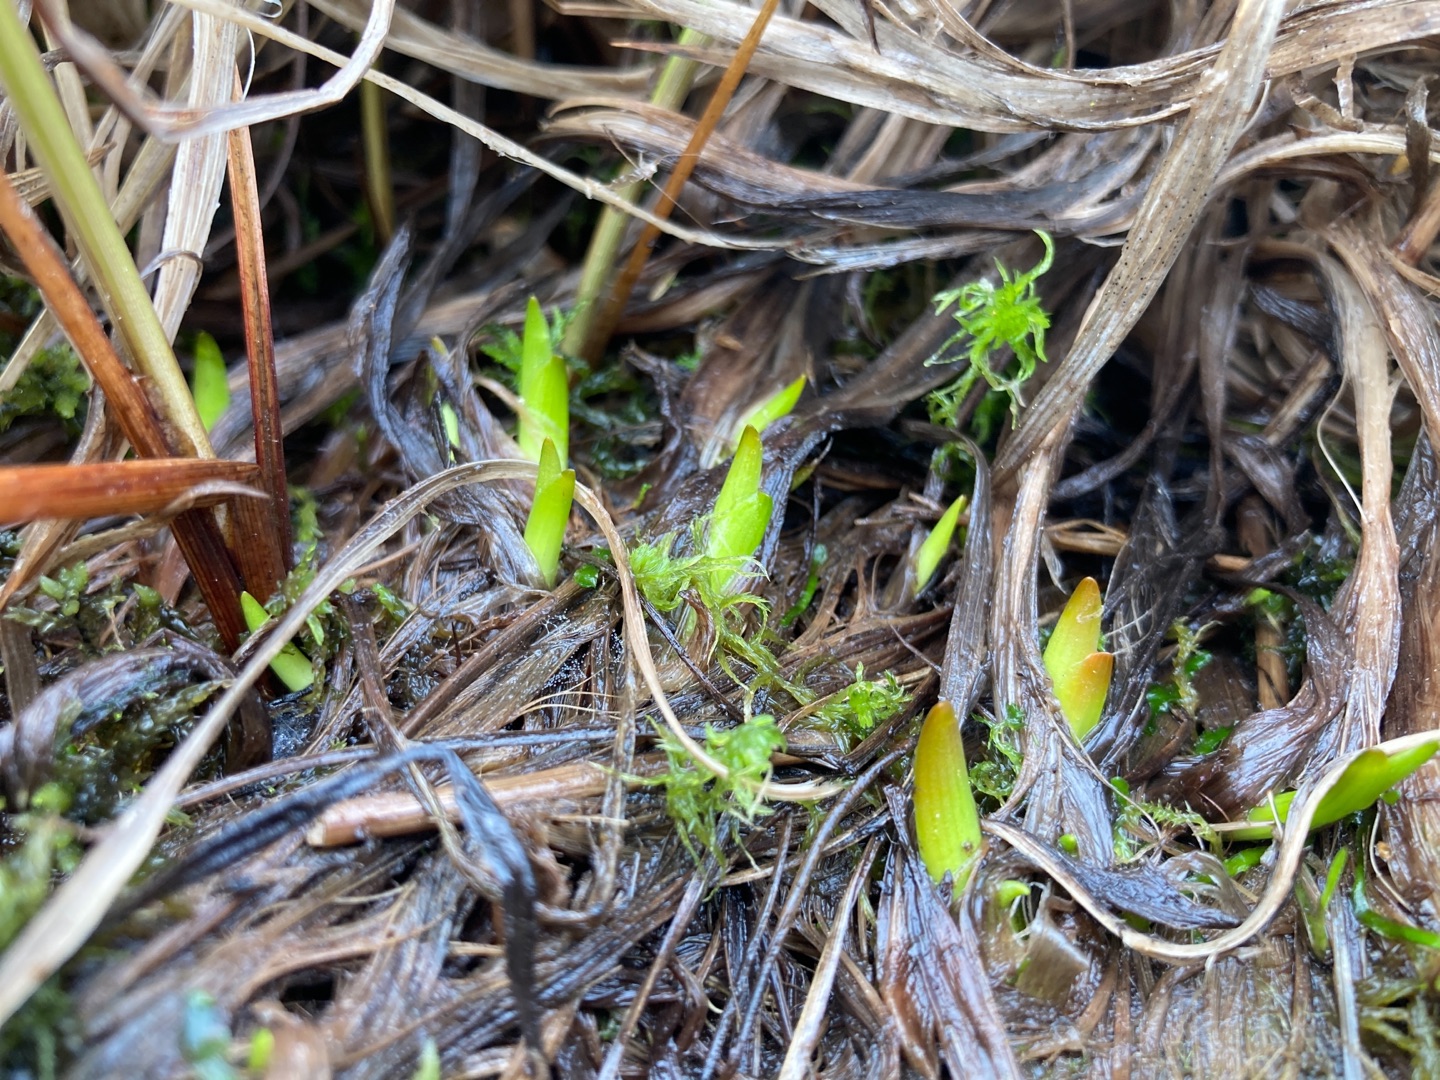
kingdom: Plantae
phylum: Tracheophyta
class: Liliopsida
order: Dioscoreales
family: Nartheciaceae
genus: Narthecium
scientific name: Narthecium ossifragum
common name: Benbræk
